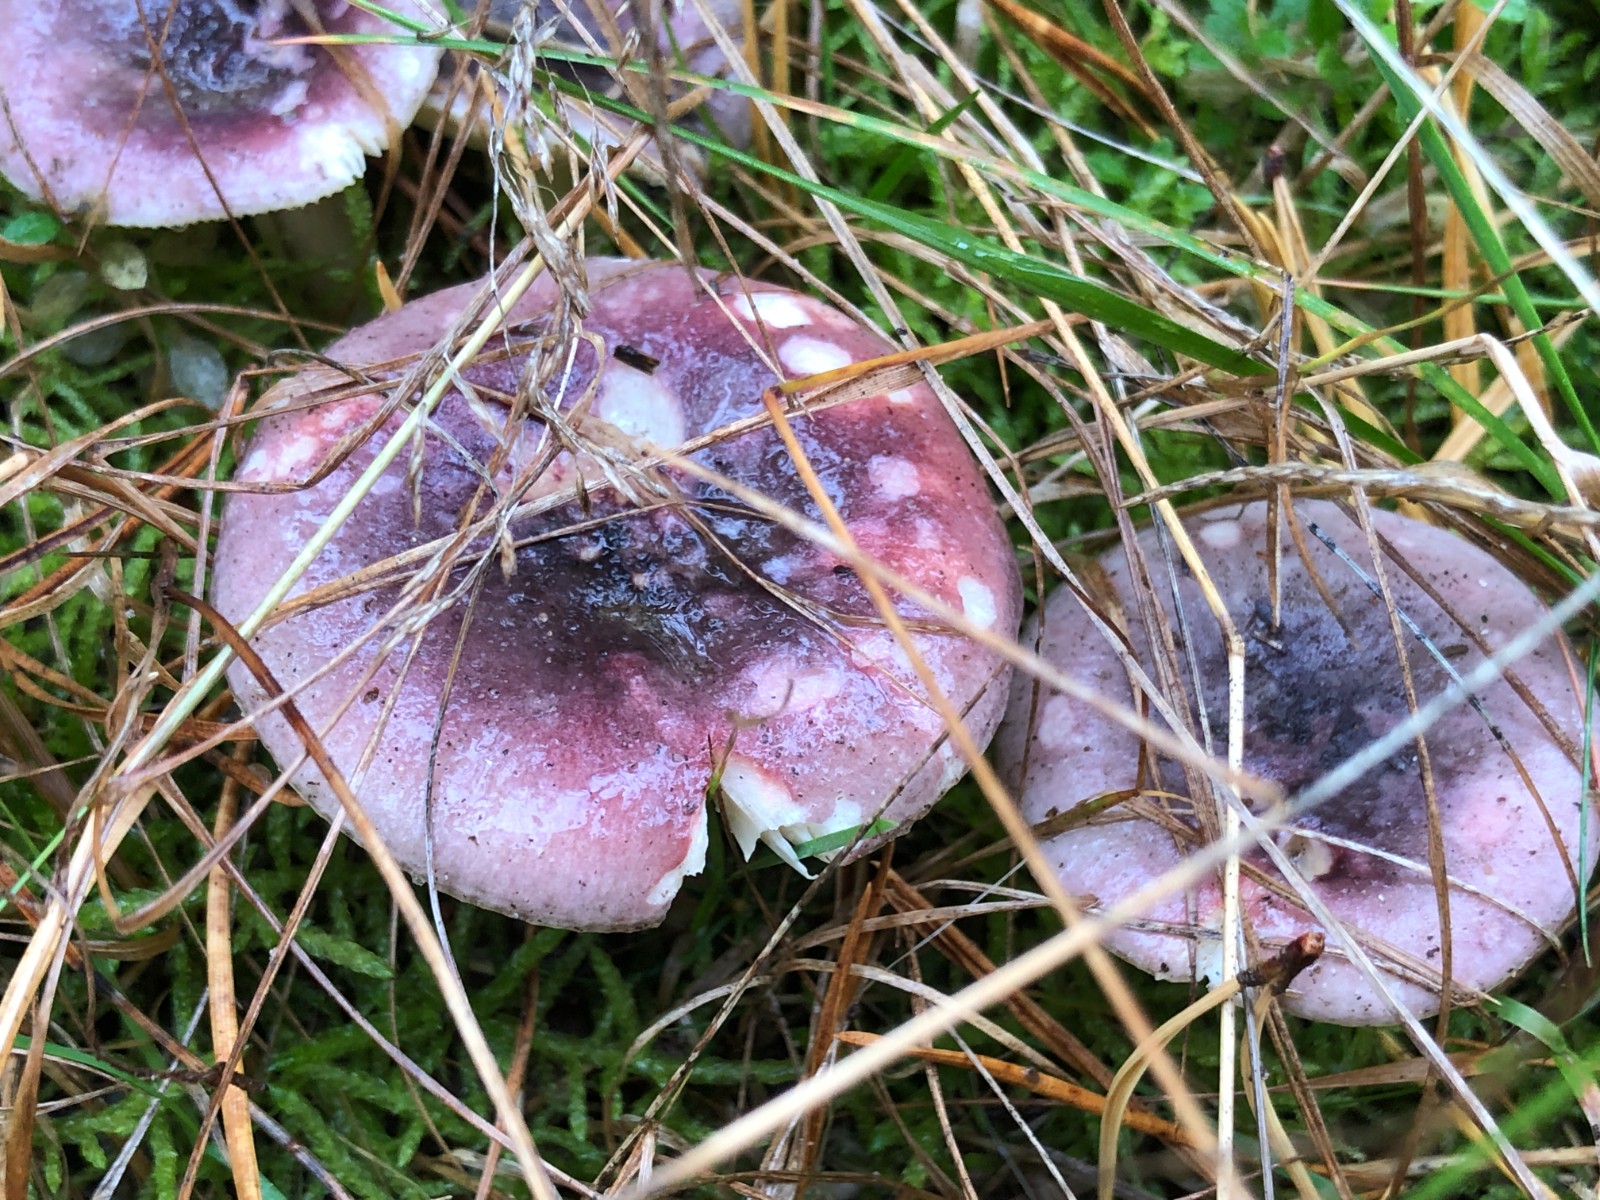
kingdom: Fungi
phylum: Basidiomycota
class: Agaricomycetes
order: Russulales
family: Russulaceae
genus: Russula
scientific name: Russula sardonia
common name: citronbladet skørhat
